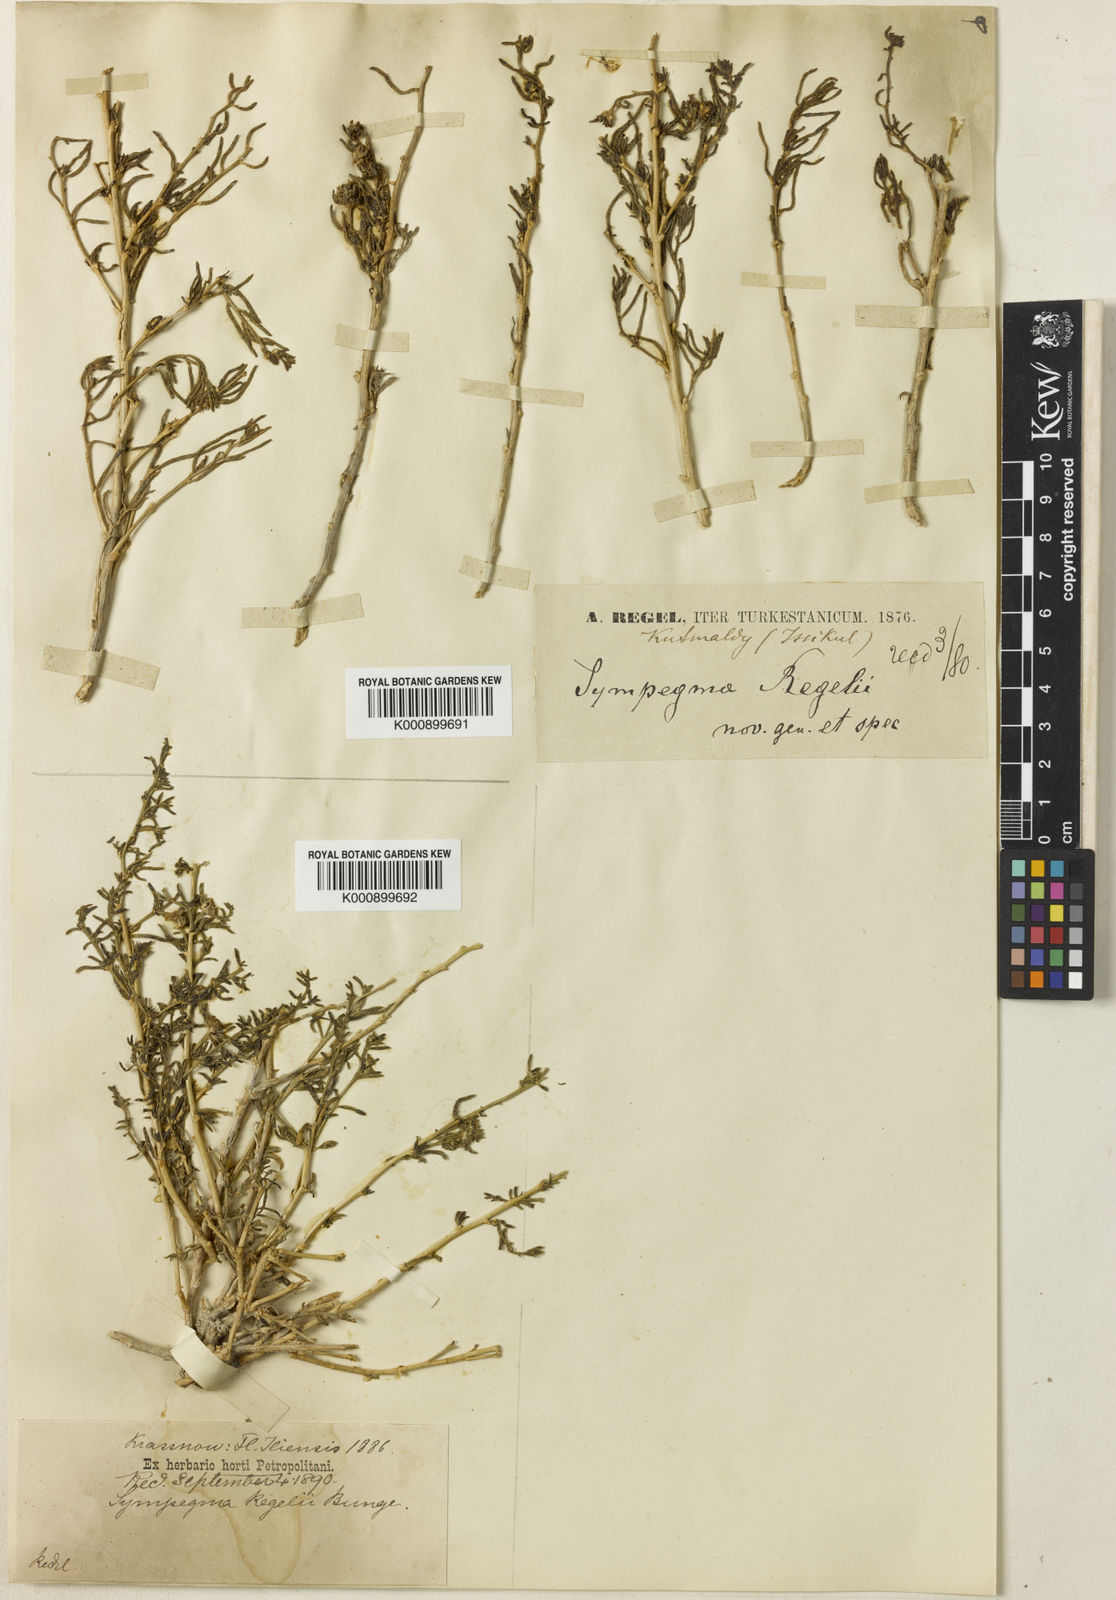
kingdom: Plantae
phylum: Tracheophyta
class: Magnoliopsida
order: Caryophyllales
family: Amaranthaceae
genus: Sympegma
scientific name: Sympegma regelii
